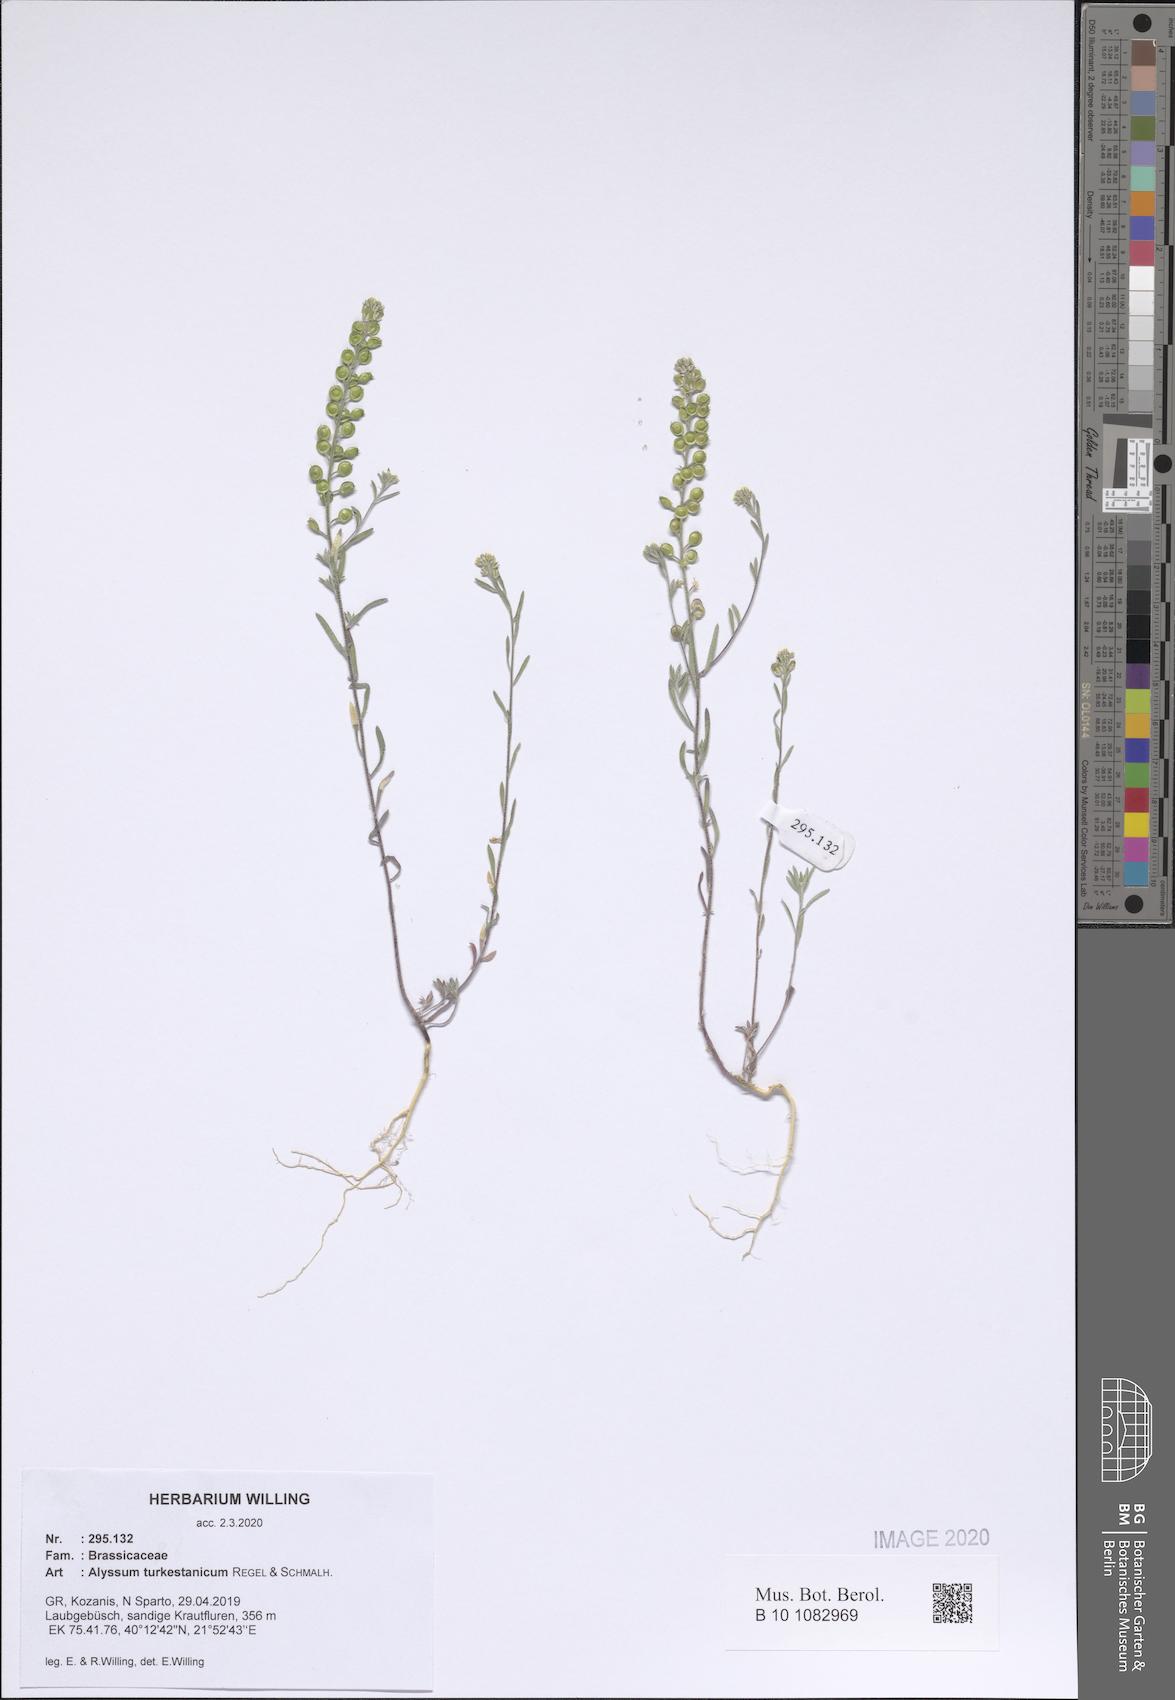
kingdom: Plantae
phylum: Tracheophyta
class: Magnoliopsida
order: Brassicales
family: Brassicaceae
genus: Alyssum
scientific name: Alyssum turkestanicum
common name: Desert alyssum
